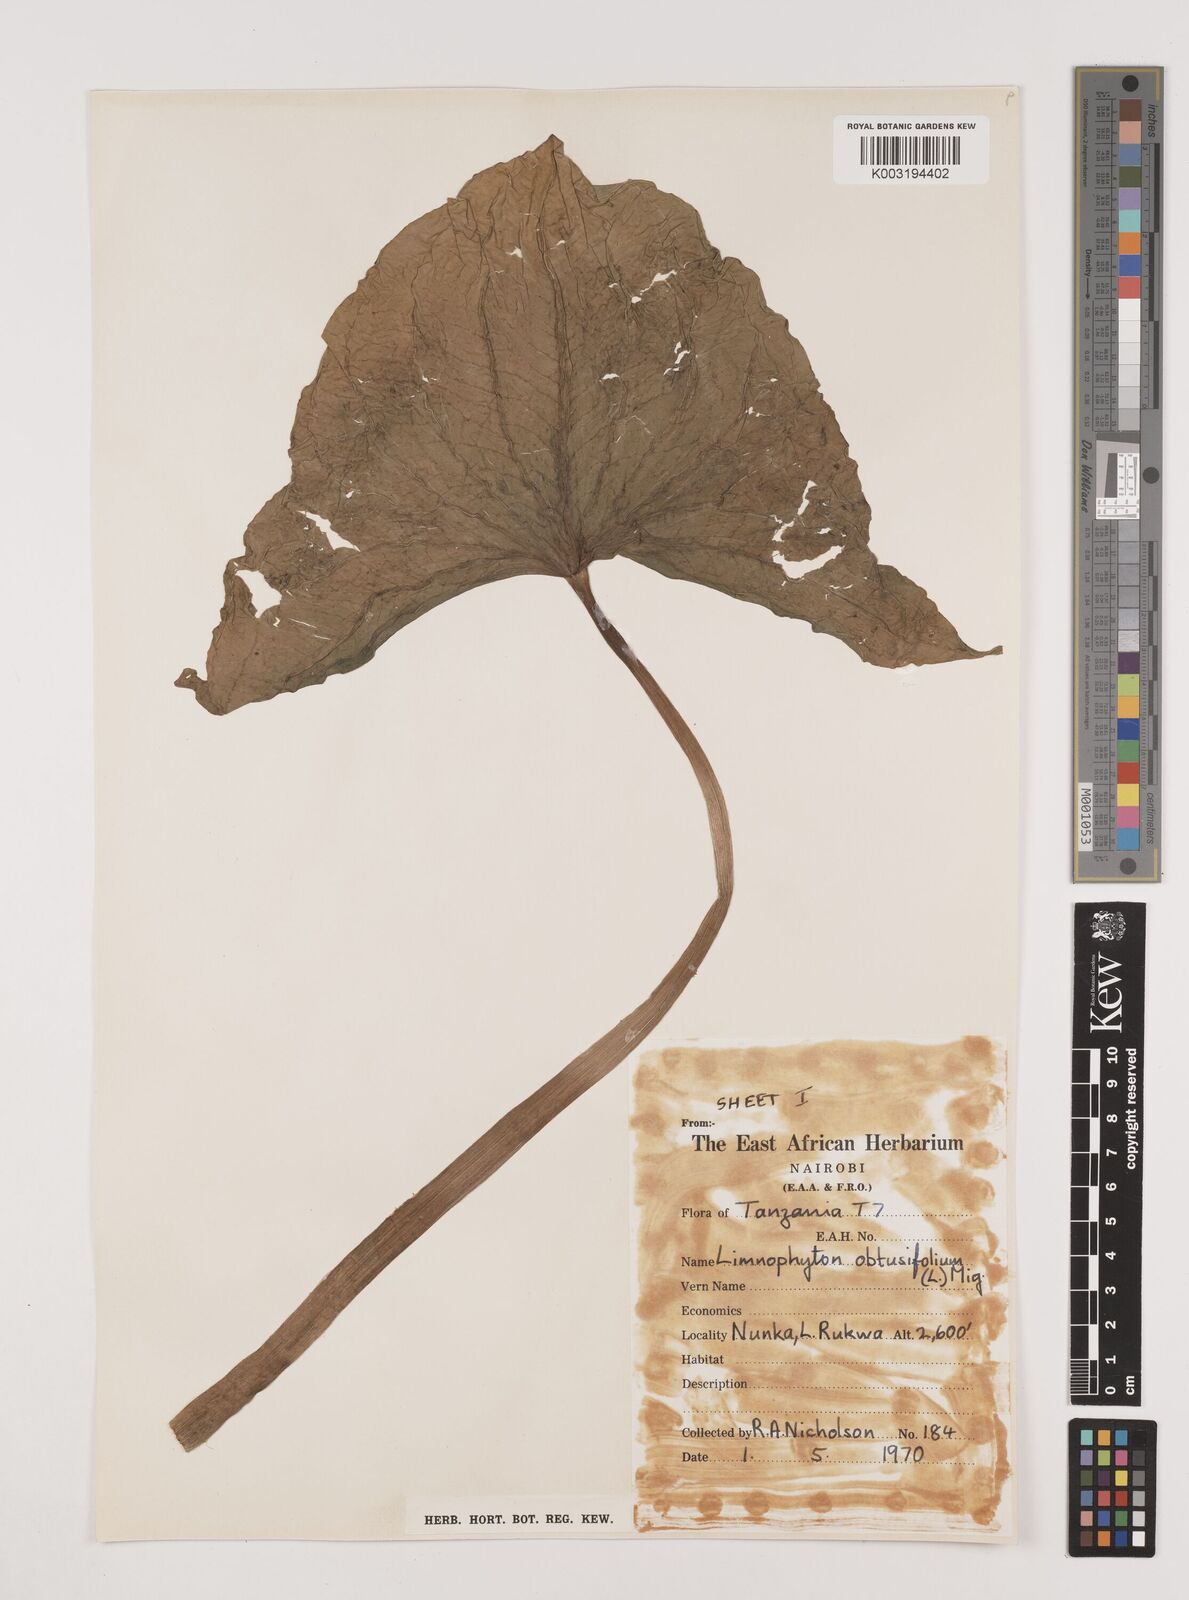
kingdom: Plantae
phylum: Tracheophyta
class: Liliopsida
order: Alismatales
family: Alismataceae
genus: Limnophyton
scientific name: Limnophyton obtusifolium
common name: Arrow head
